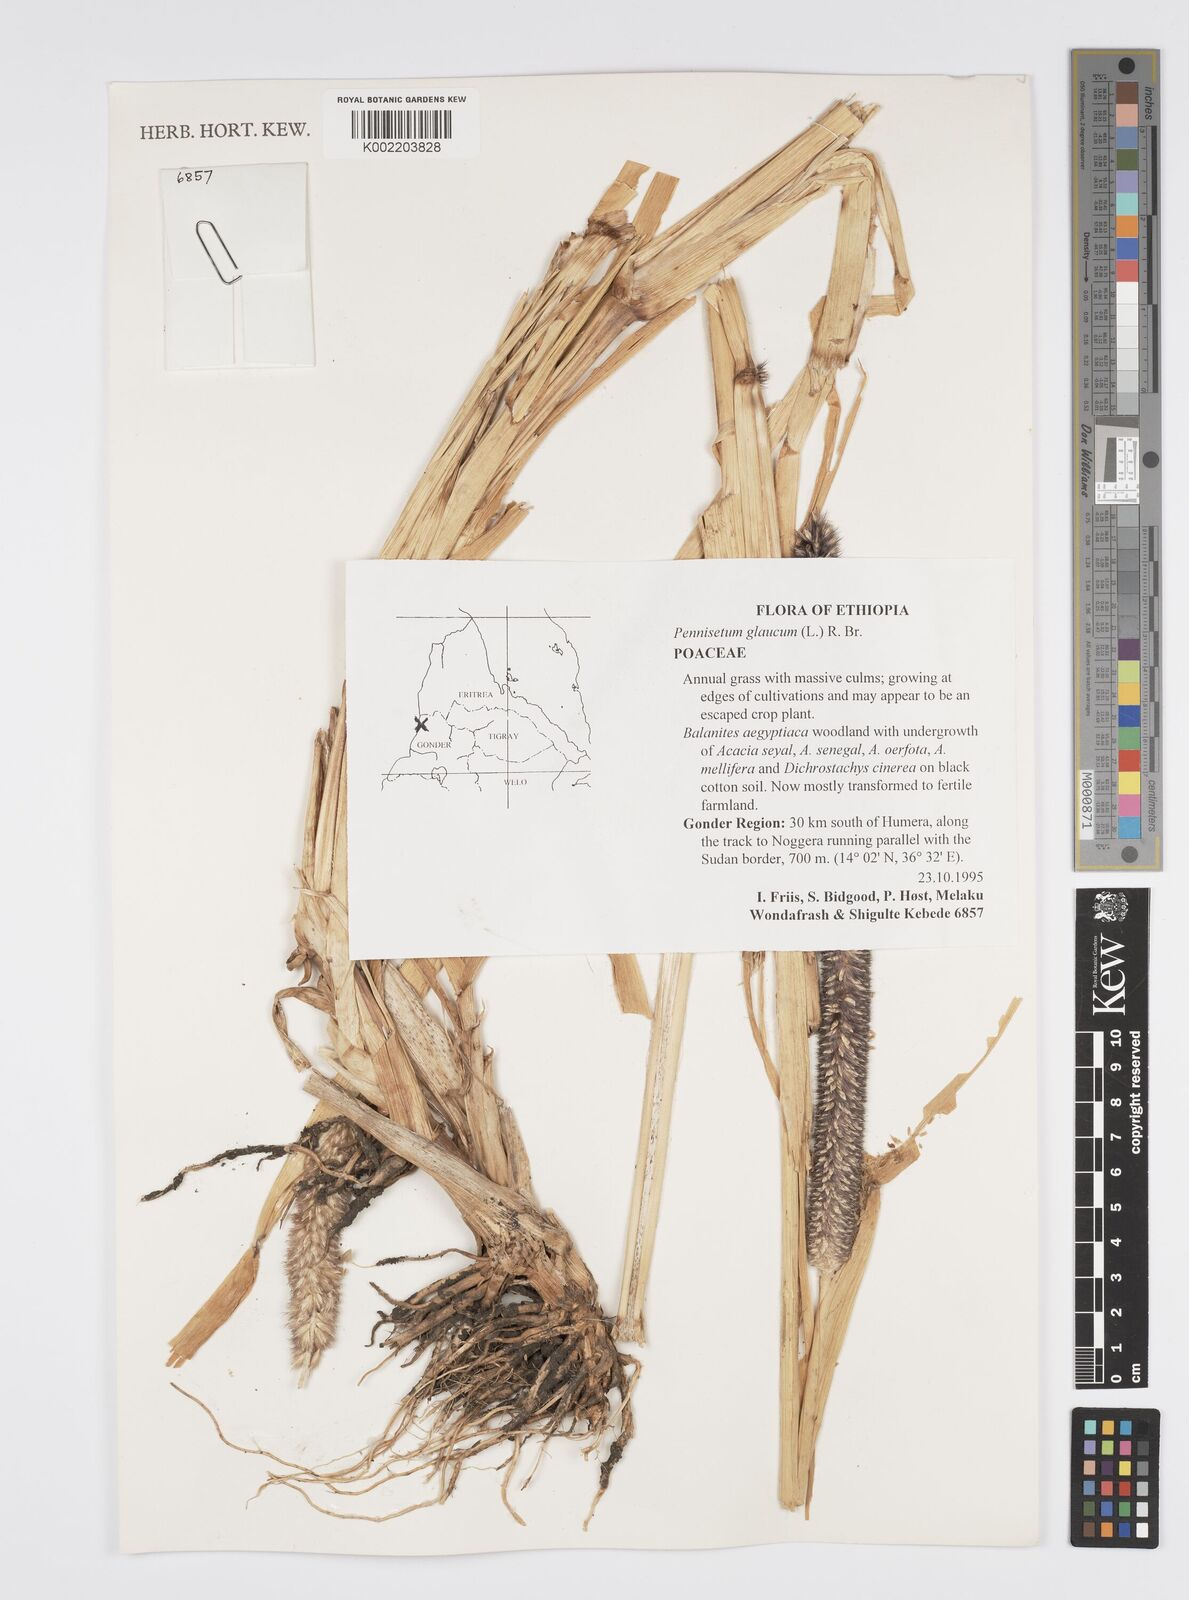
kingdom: Plantae
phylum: Tracheophyta
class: Liliopsida
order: Poales
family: Poaceae
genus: Cenchrus
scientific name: Cenchrus americanus
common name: Pearl millet
